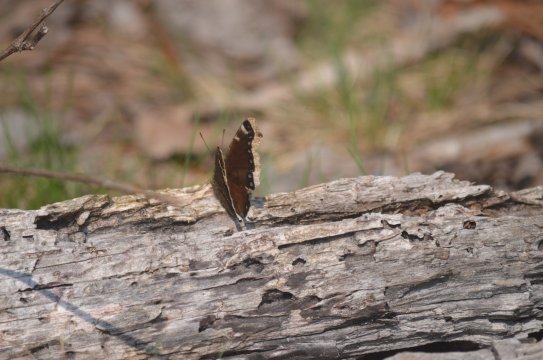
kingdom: Animalia
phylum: Arthropoda
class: Insecta
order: Lepidoptera
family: Nymphalidae
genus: Nymphalis
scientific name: Nymphalis antiopa
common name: Mourning Cloak
